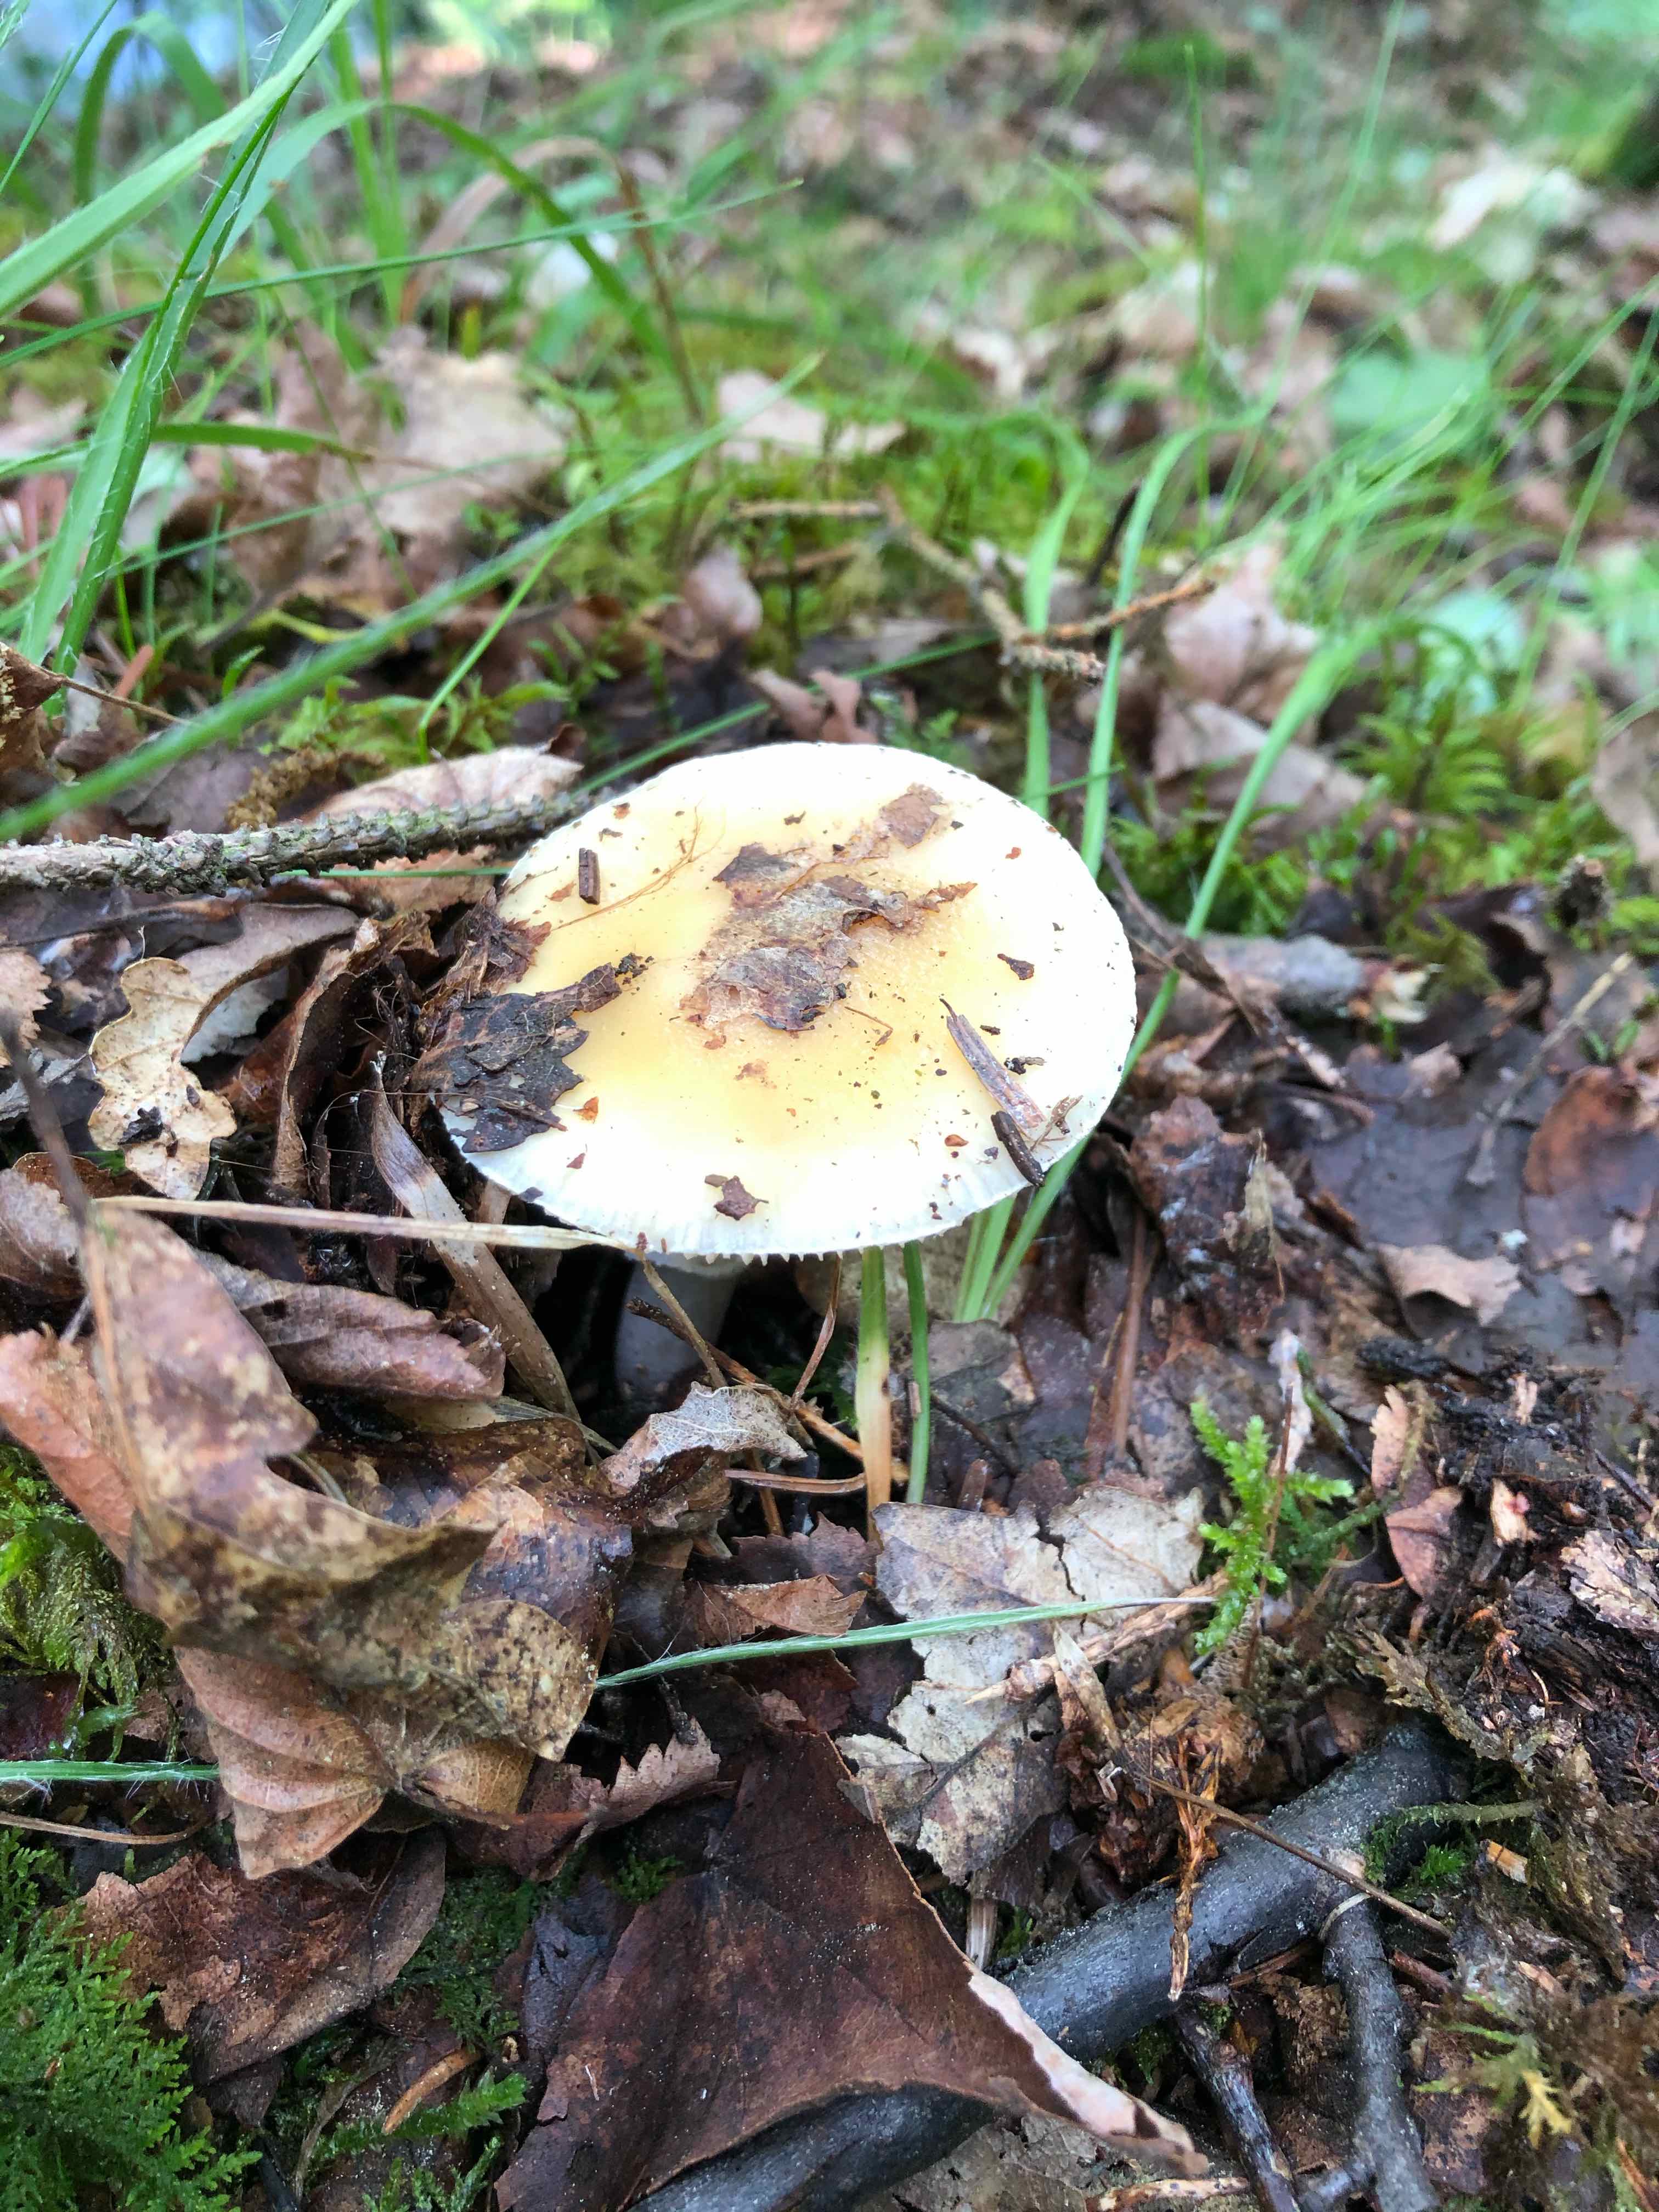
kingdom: Fungi
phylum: Basidiomycota
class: Agaricomycetes
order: Agaricales
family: Amanitaceae
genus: Amanita
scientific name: Amanita
